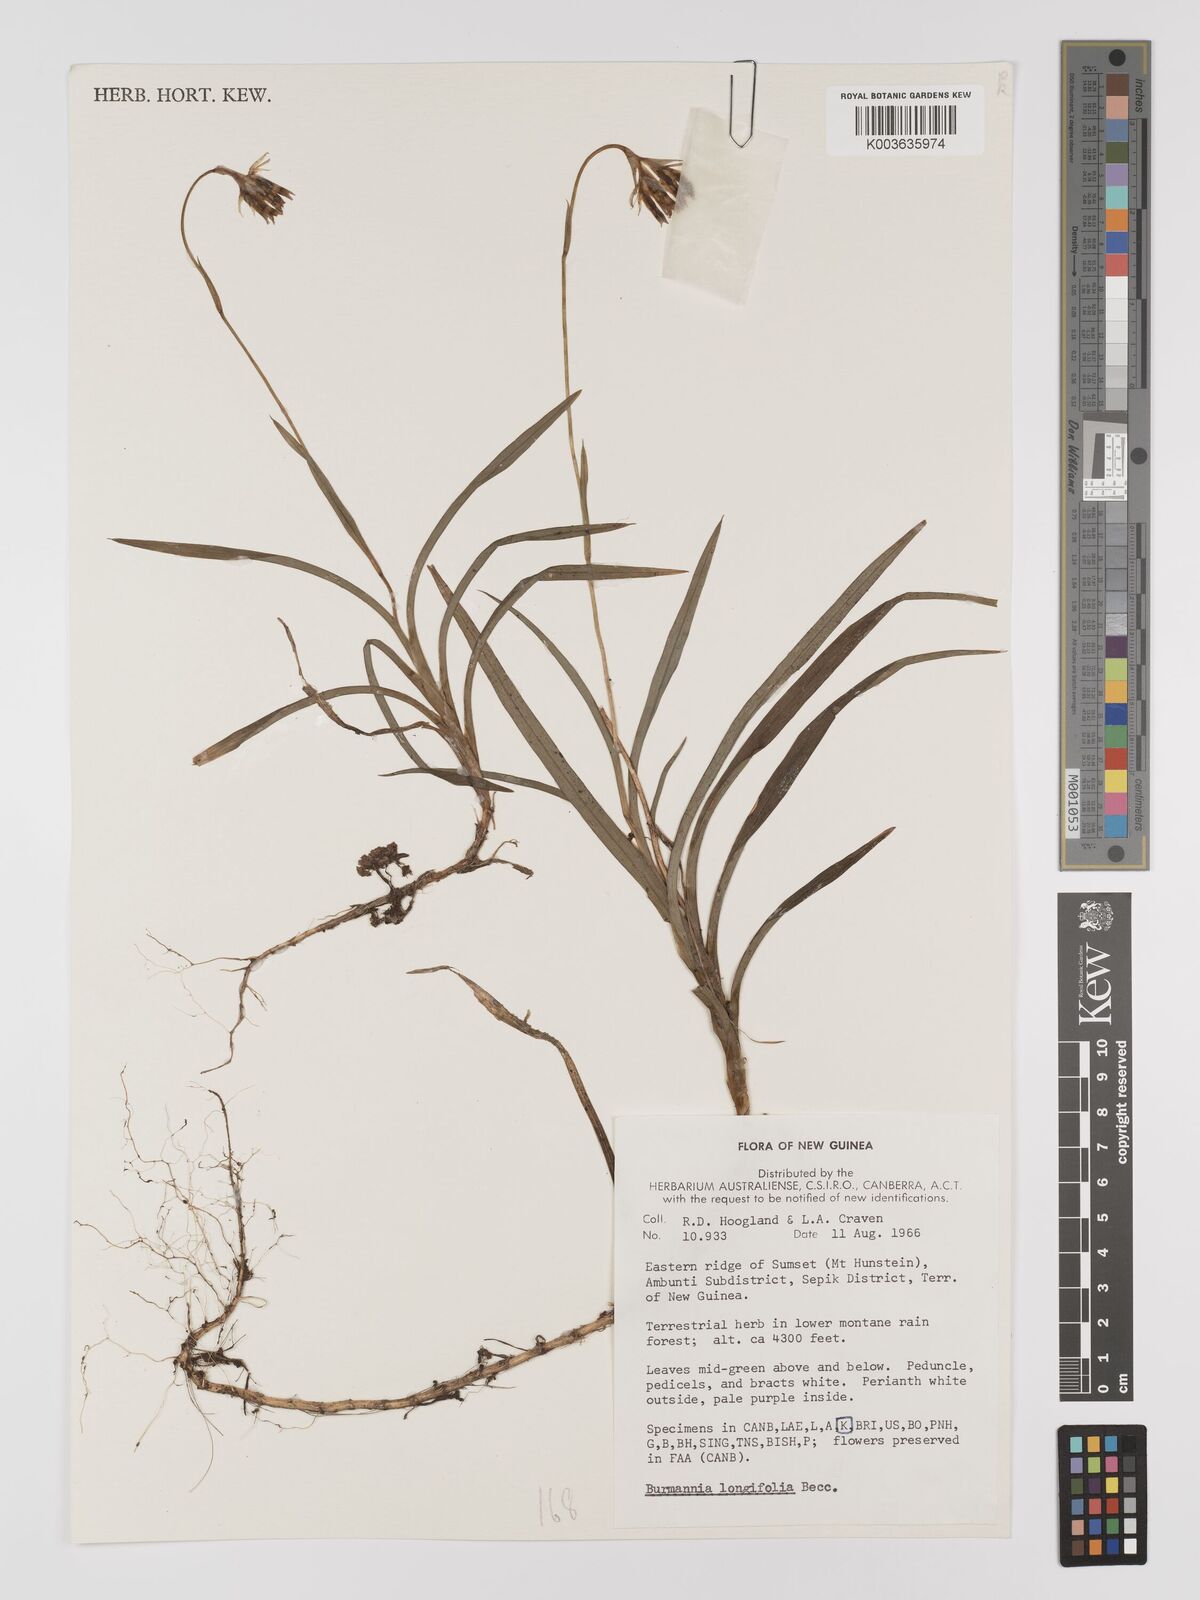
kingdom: Plantae
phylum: Tracheophyta
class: Liliopsida
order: Dioscoreales
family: Burmanniaceae
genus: Burmannia
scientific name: Burmannia longifolia
